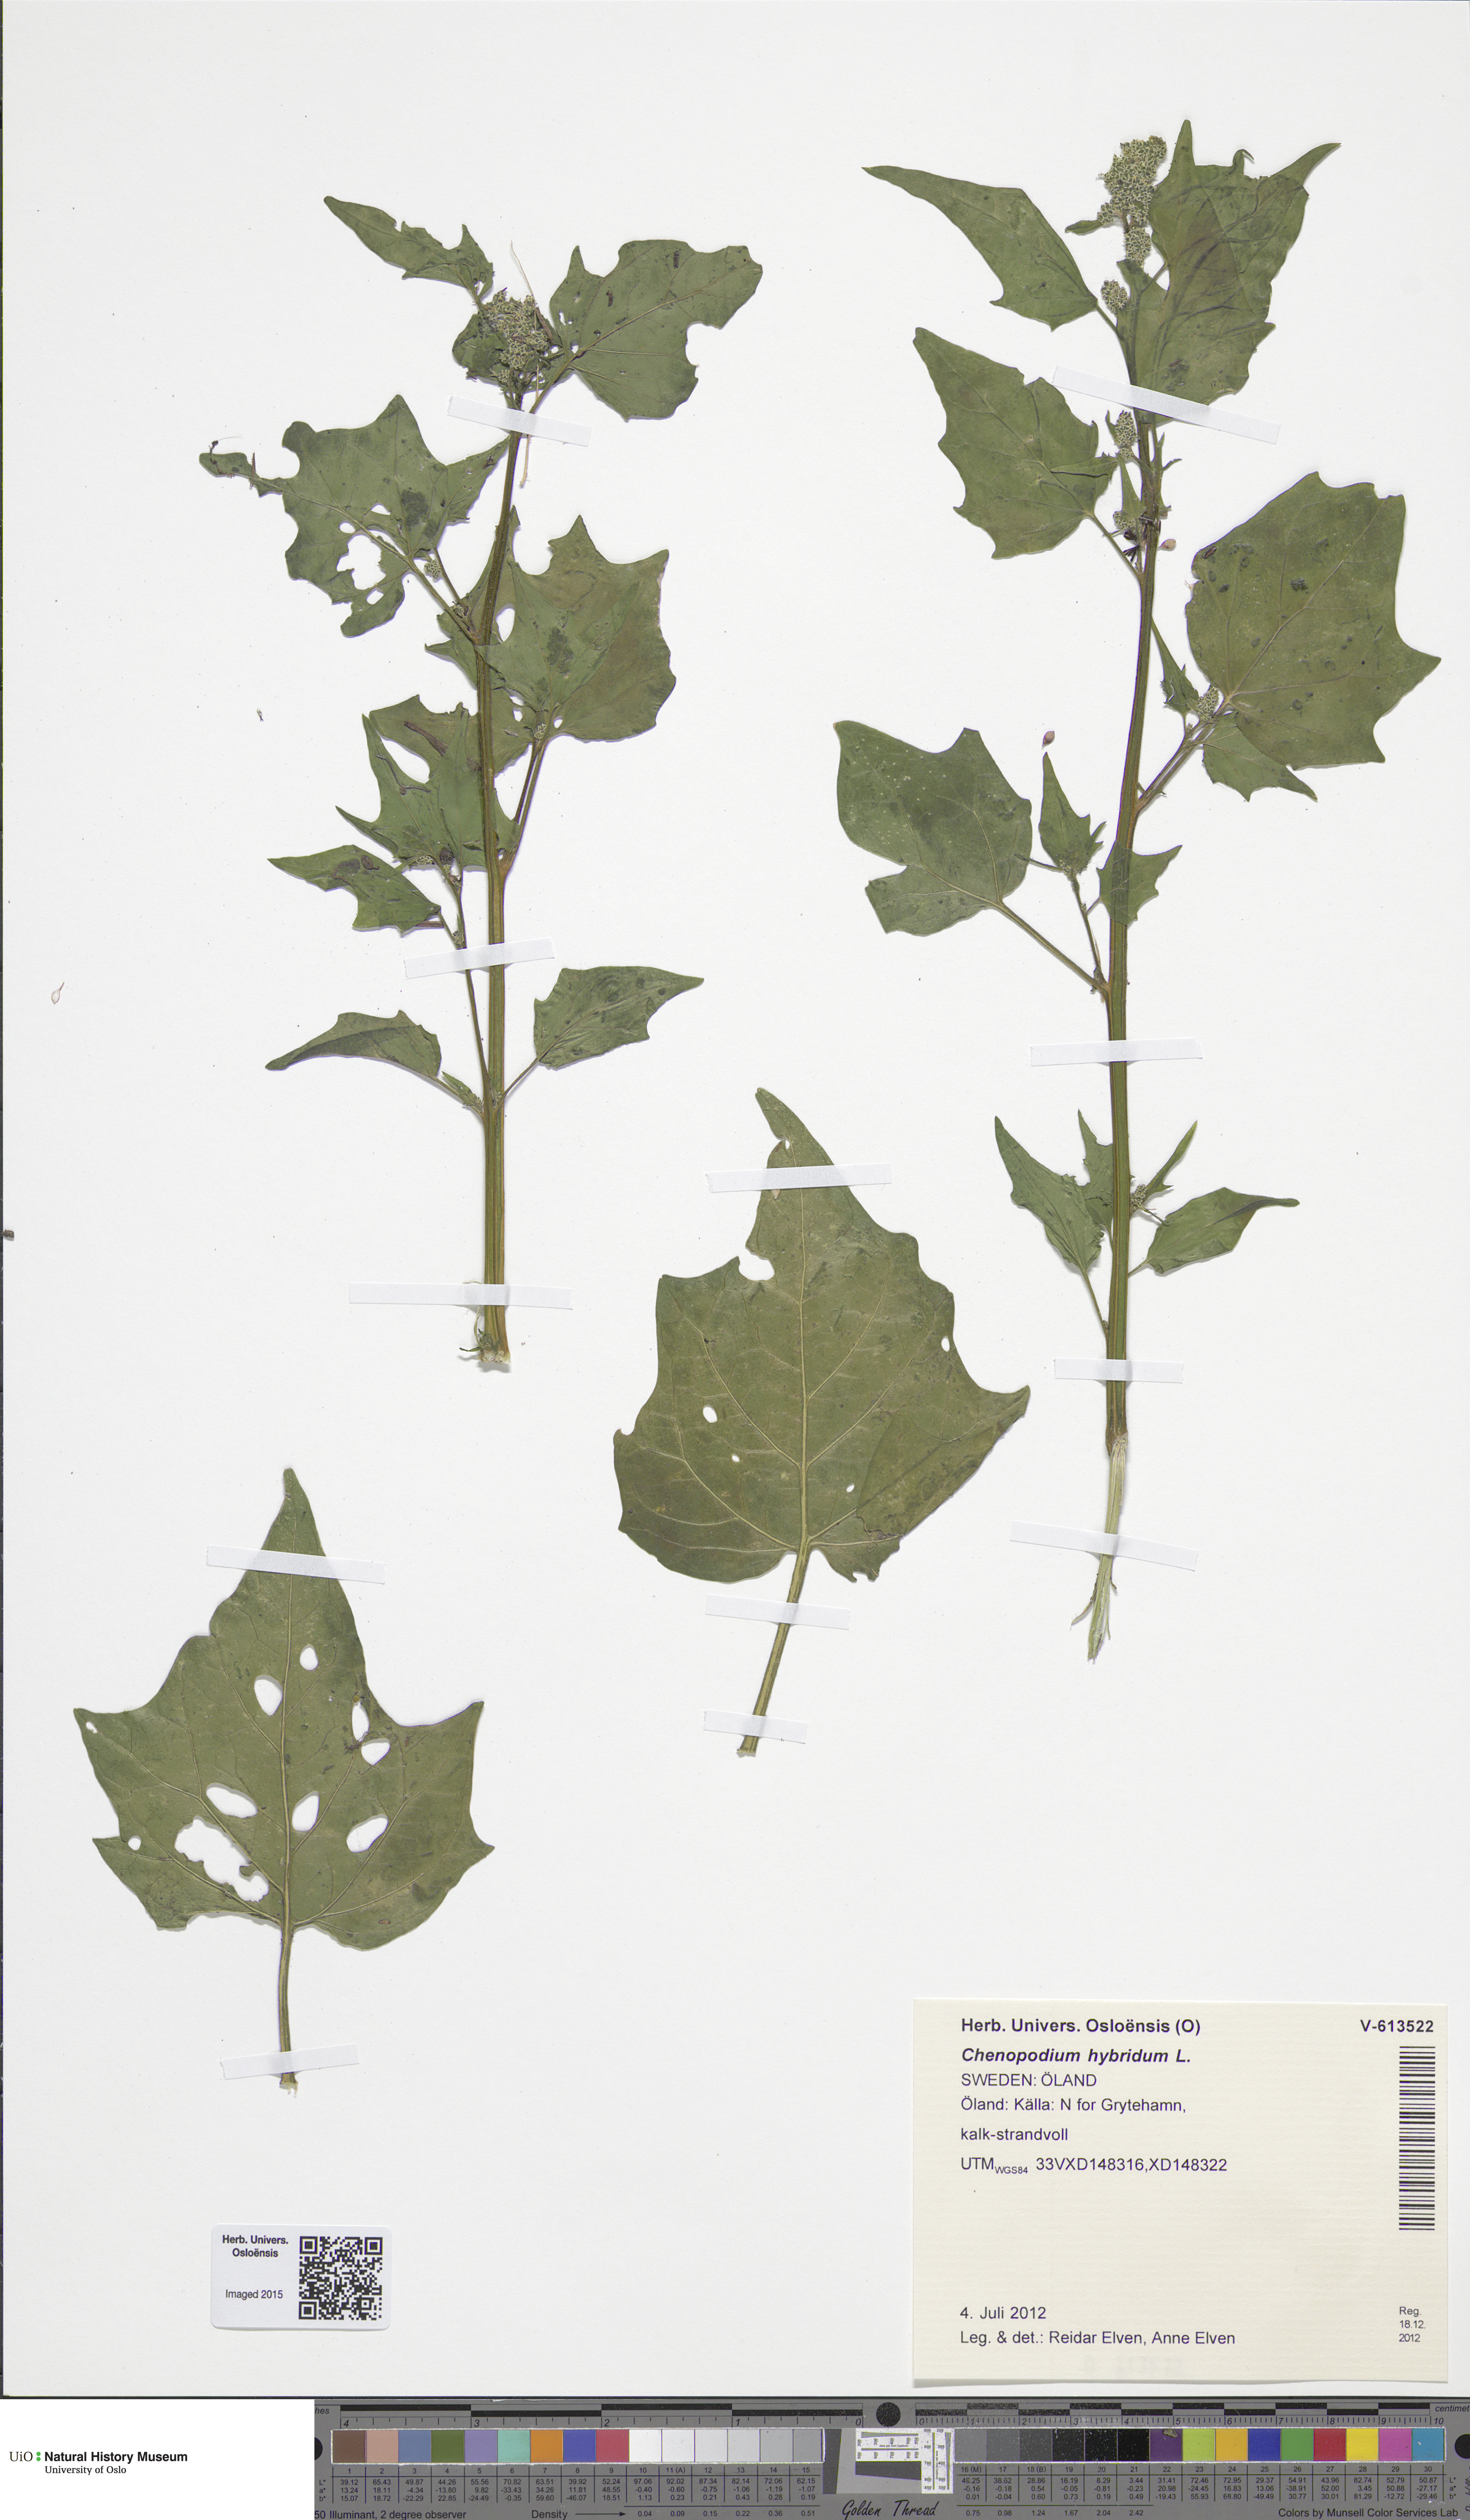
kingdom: Plantae
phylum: Tracheophyta
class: Magnoliopsida
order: Caryophyllales
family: Amaranthaceae
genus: Chenopodiastrum
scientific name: Chenopodiastrum hybridum
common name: Mapleleaf goosefoot
